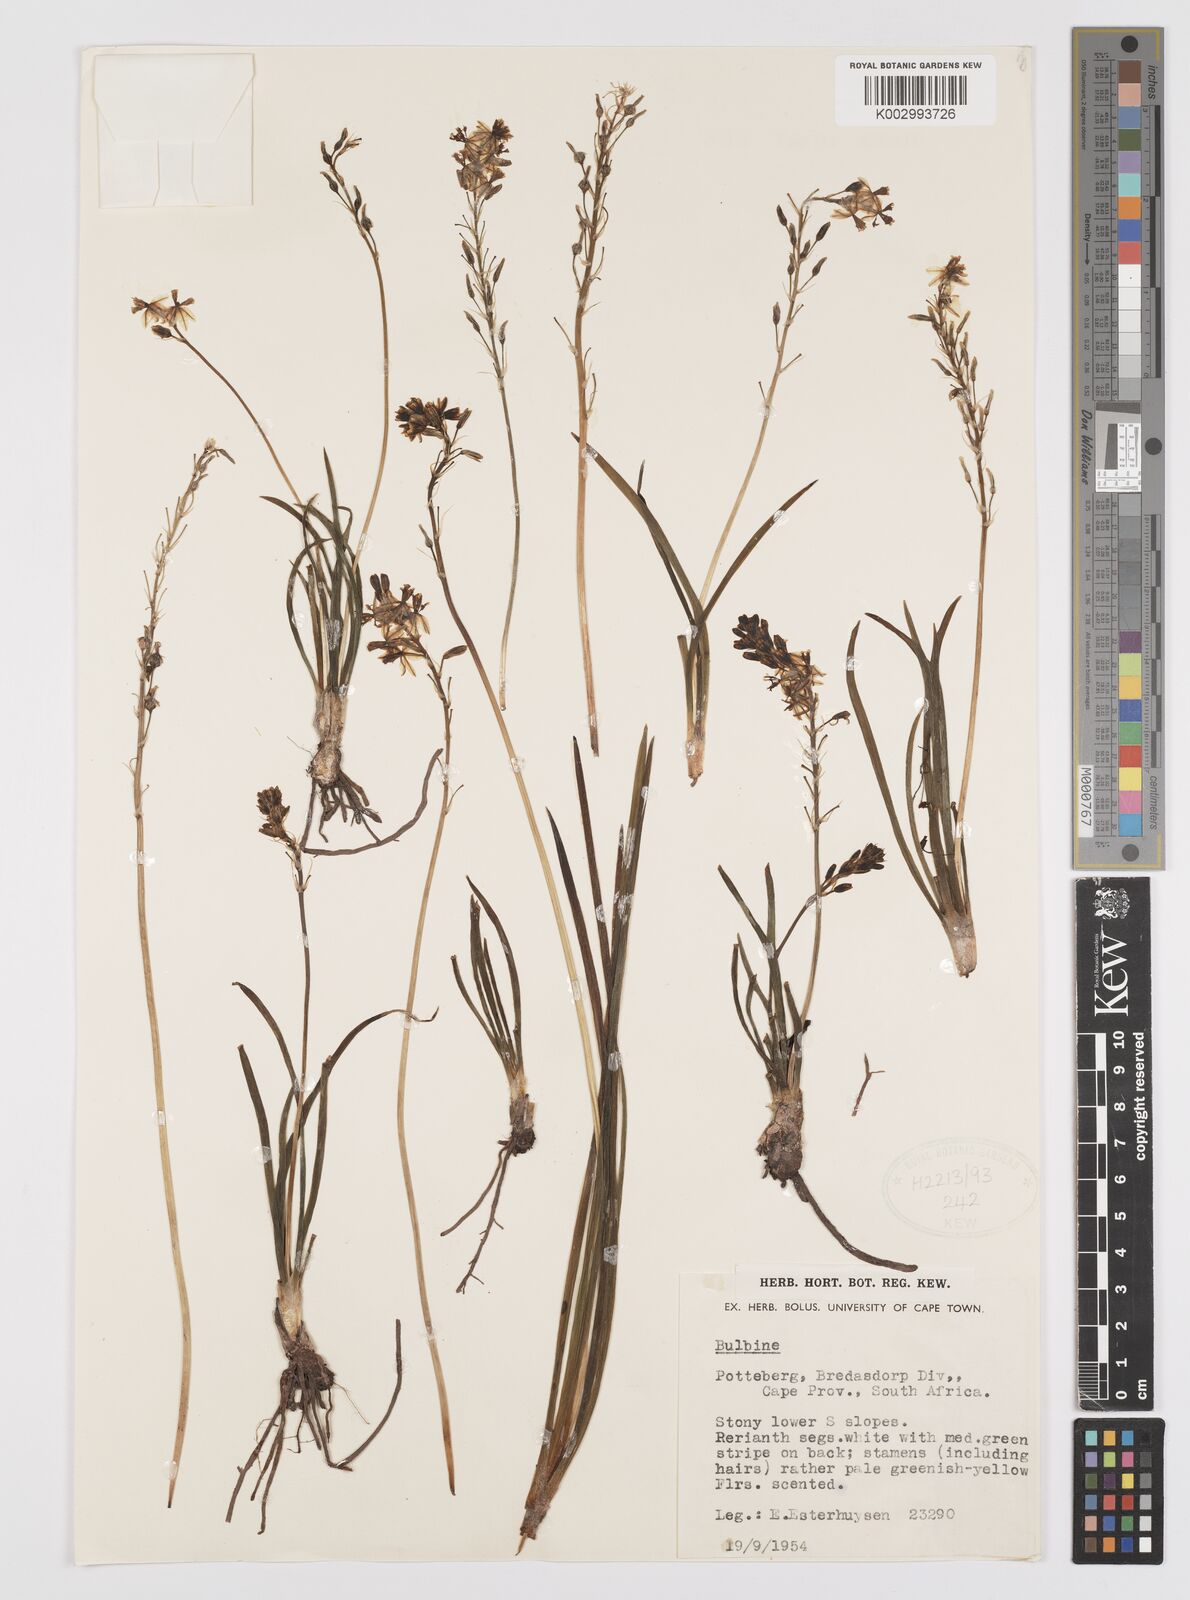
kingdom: Plantae
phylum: Tracheophyta
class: Liliopsida
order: Asparagales
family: Amaryllidaceae
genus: Crinum
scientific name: Crinum
